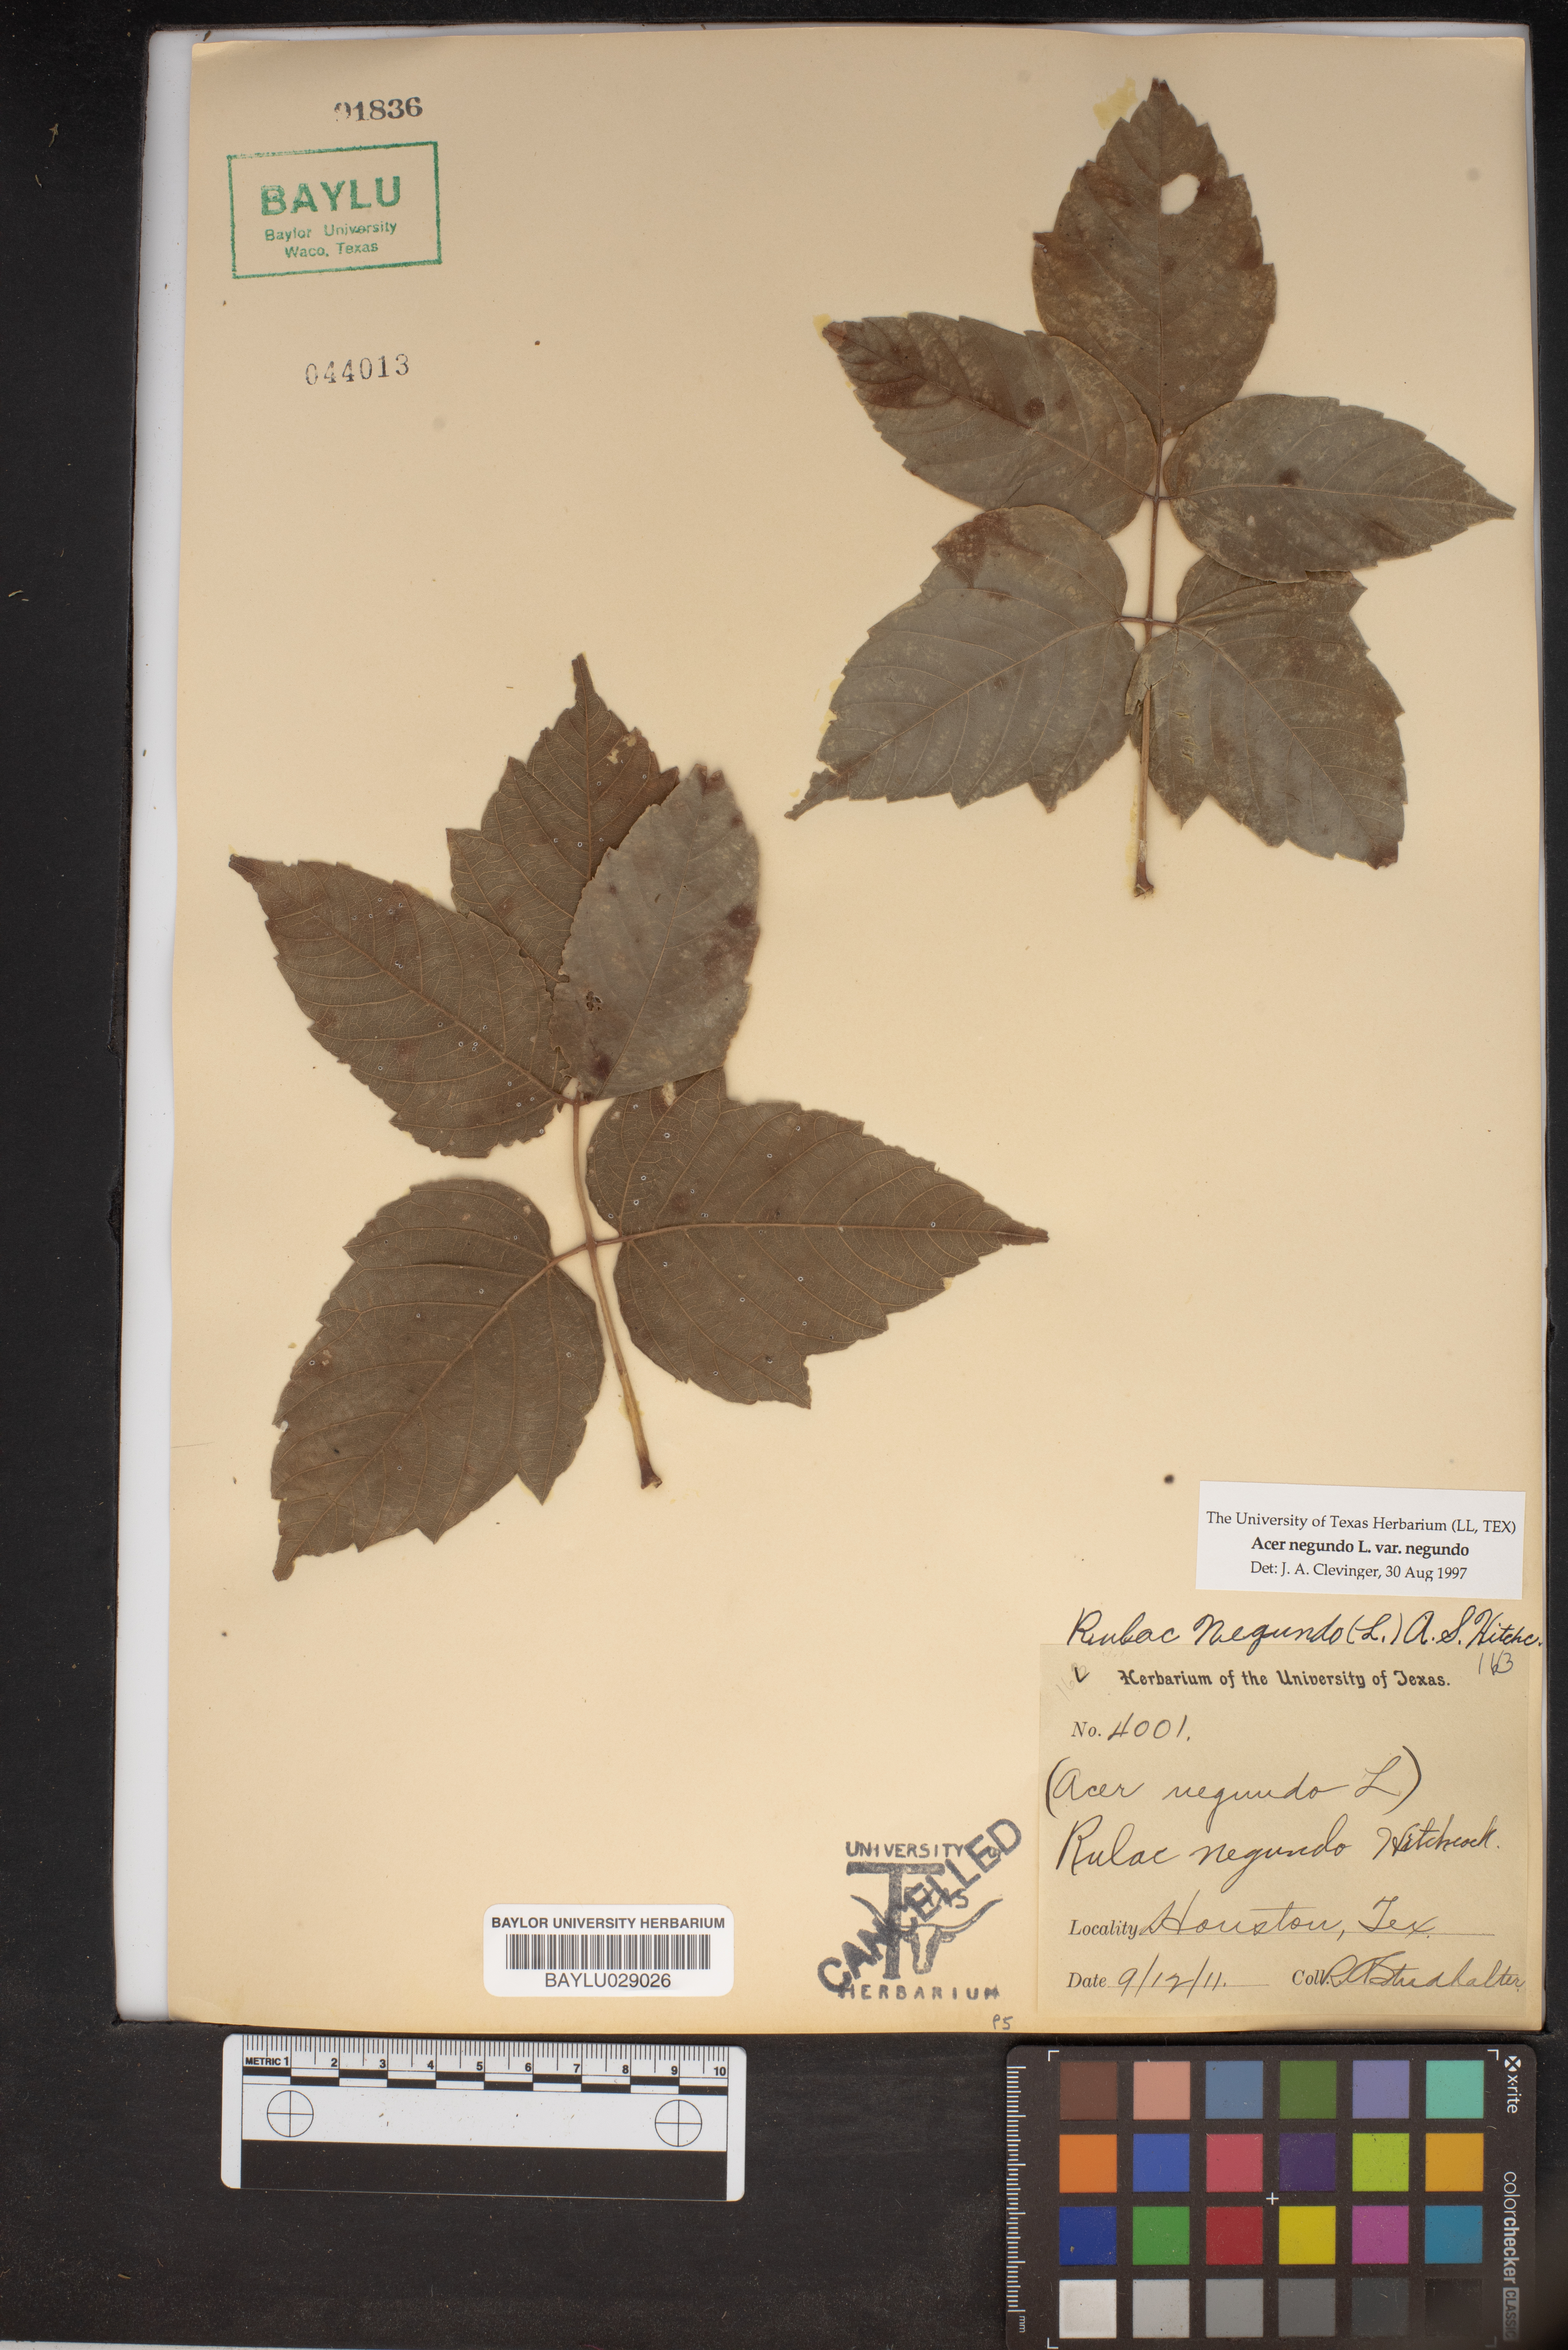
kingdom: Plantae
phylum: Tracheophyta
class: Magnoliopsida
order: Sapindales
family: Sapindaceae
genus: Acer
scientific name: Acer negundo
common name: Ashleaf maple
